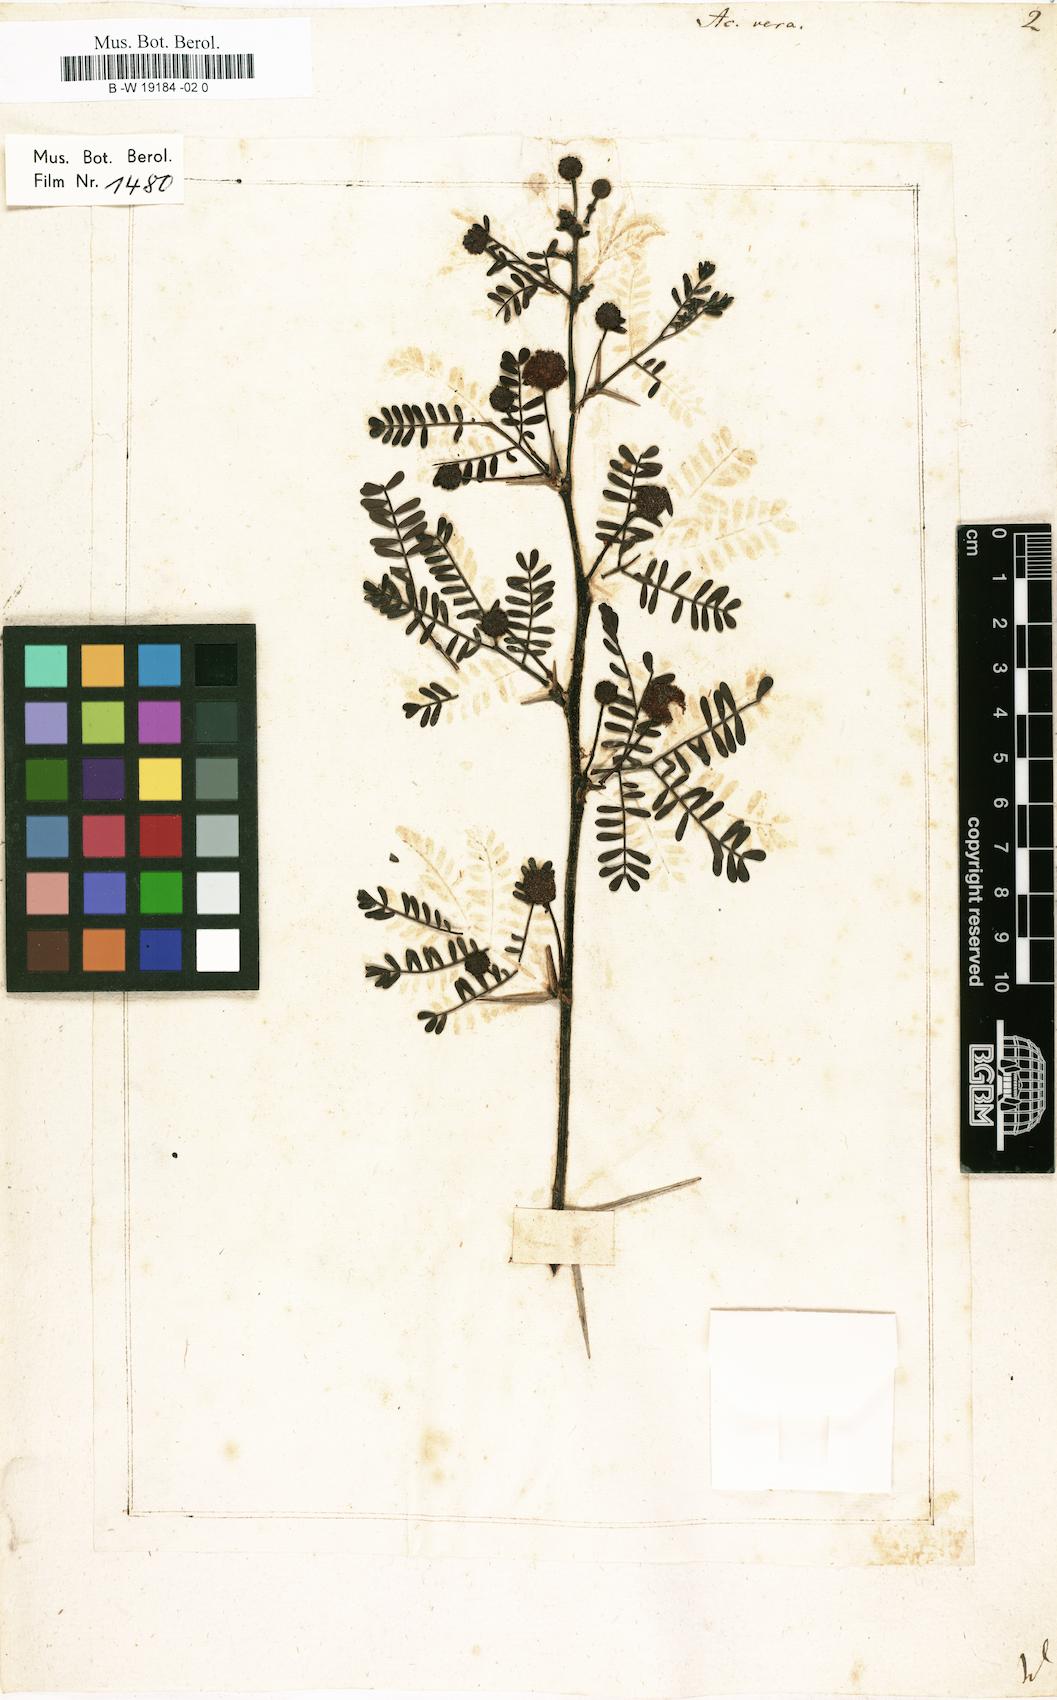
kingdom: Plantae
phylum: Tracheophyta
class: Magnoliopsida
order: Fabales
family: Fabaceae
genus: Vachellia
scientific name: Vachellia nilotica
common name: Arabic gumtree
